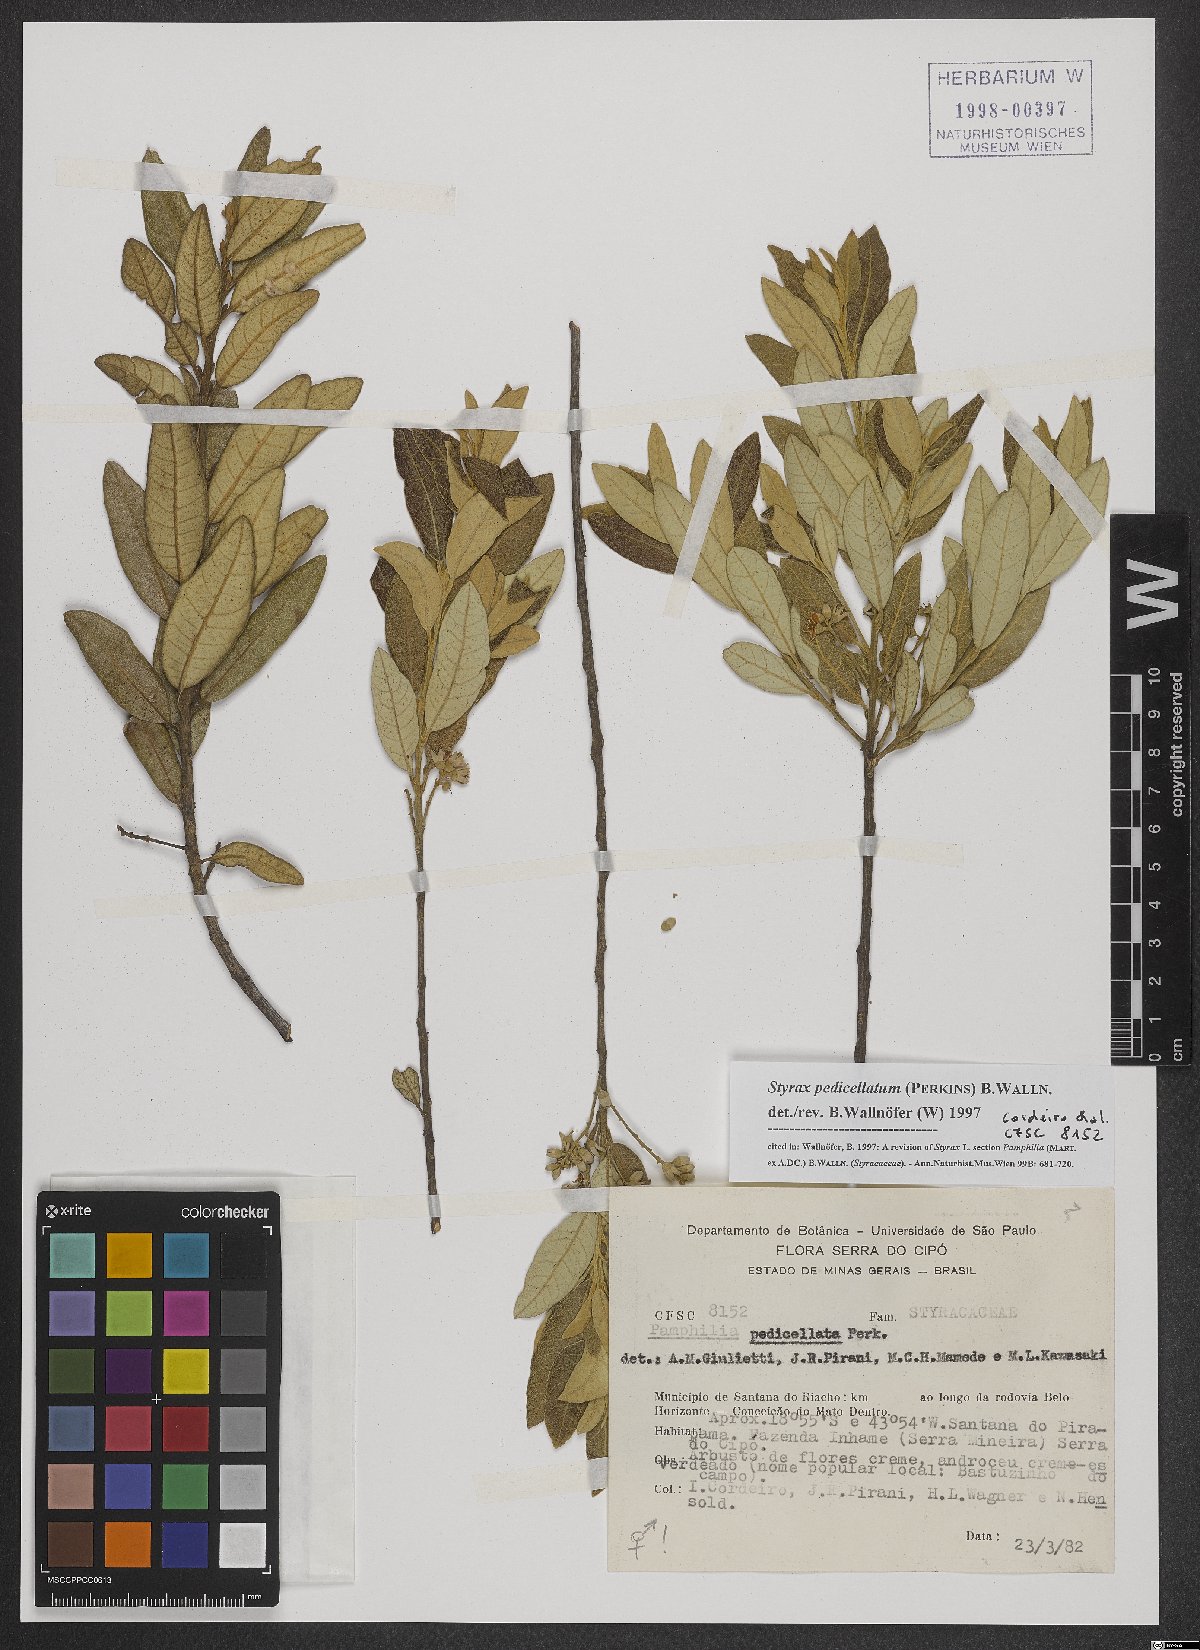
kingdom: Plantae
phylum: Tracheophyta
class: Magnoliopsida
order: Ericales
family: Styracaceae
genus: Styrax
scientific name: Styrax pedicellatus
